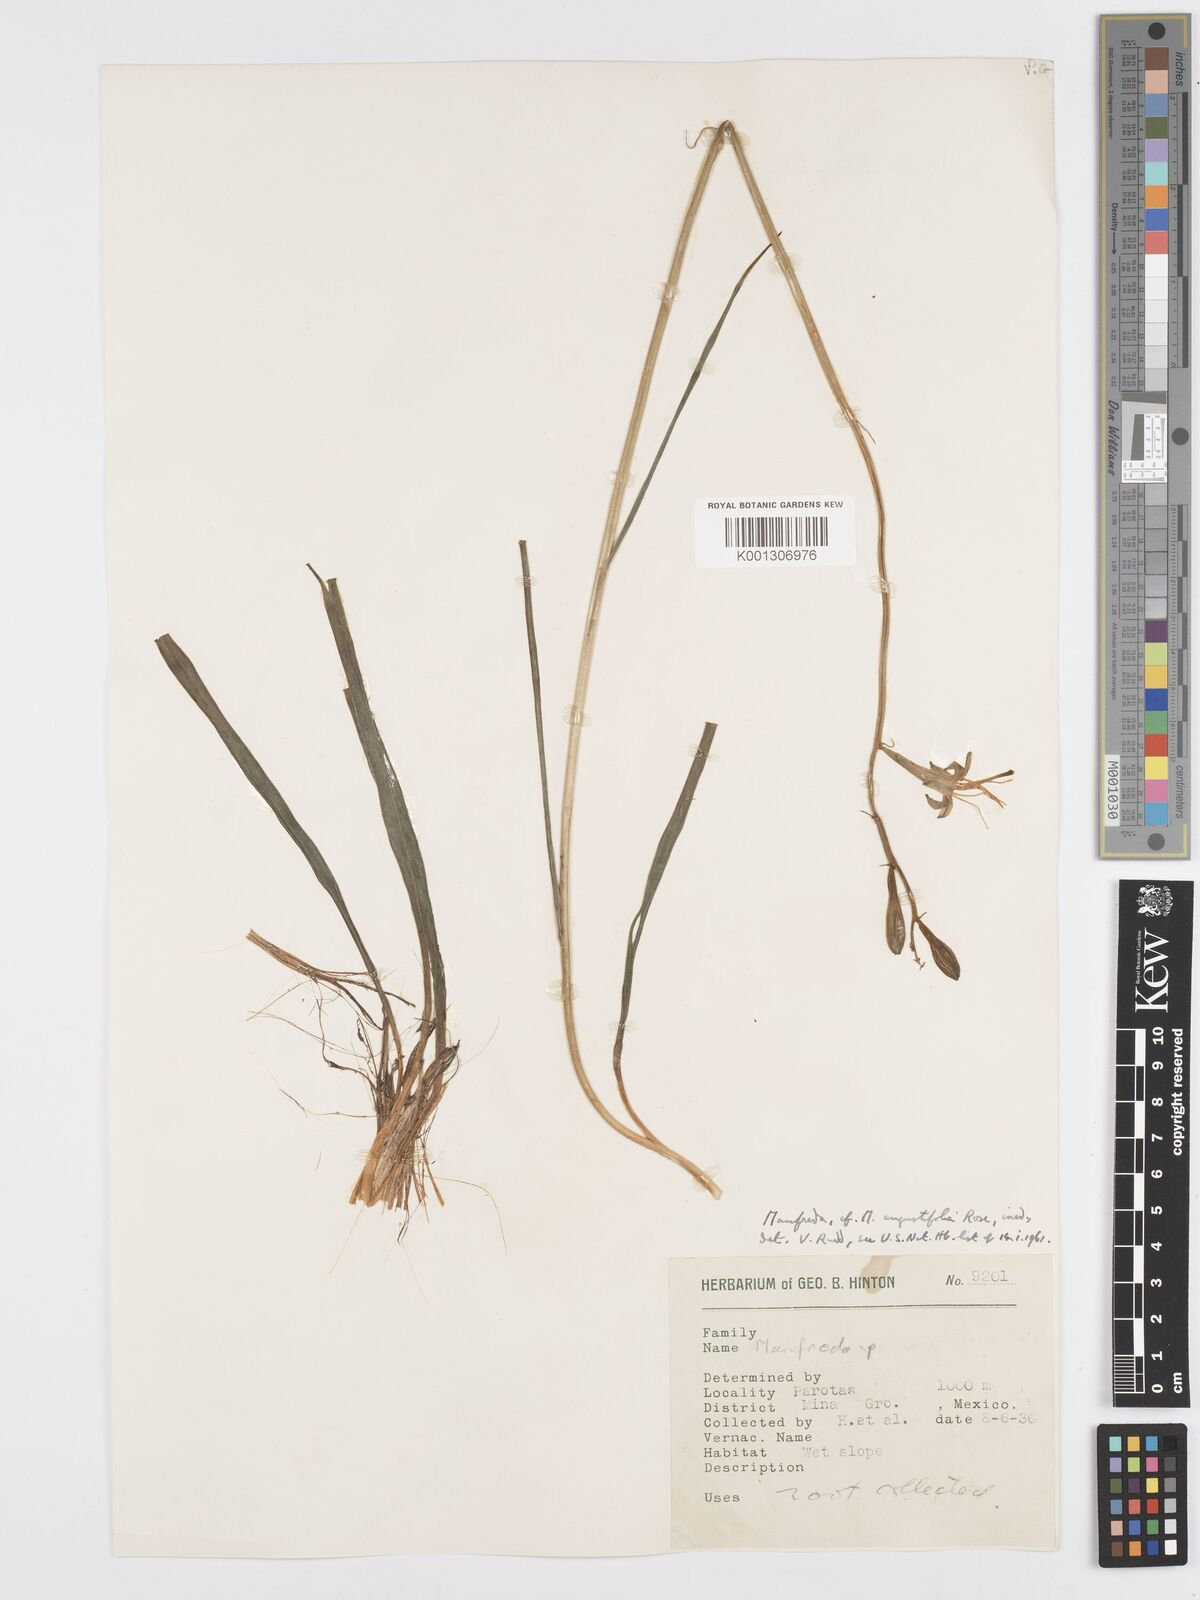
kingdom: Plantae
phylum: Tracheophyta
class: Liliopsida
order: Asparagales
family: Asparagaceae
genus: Agave
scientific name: Agave Manfreda spec
